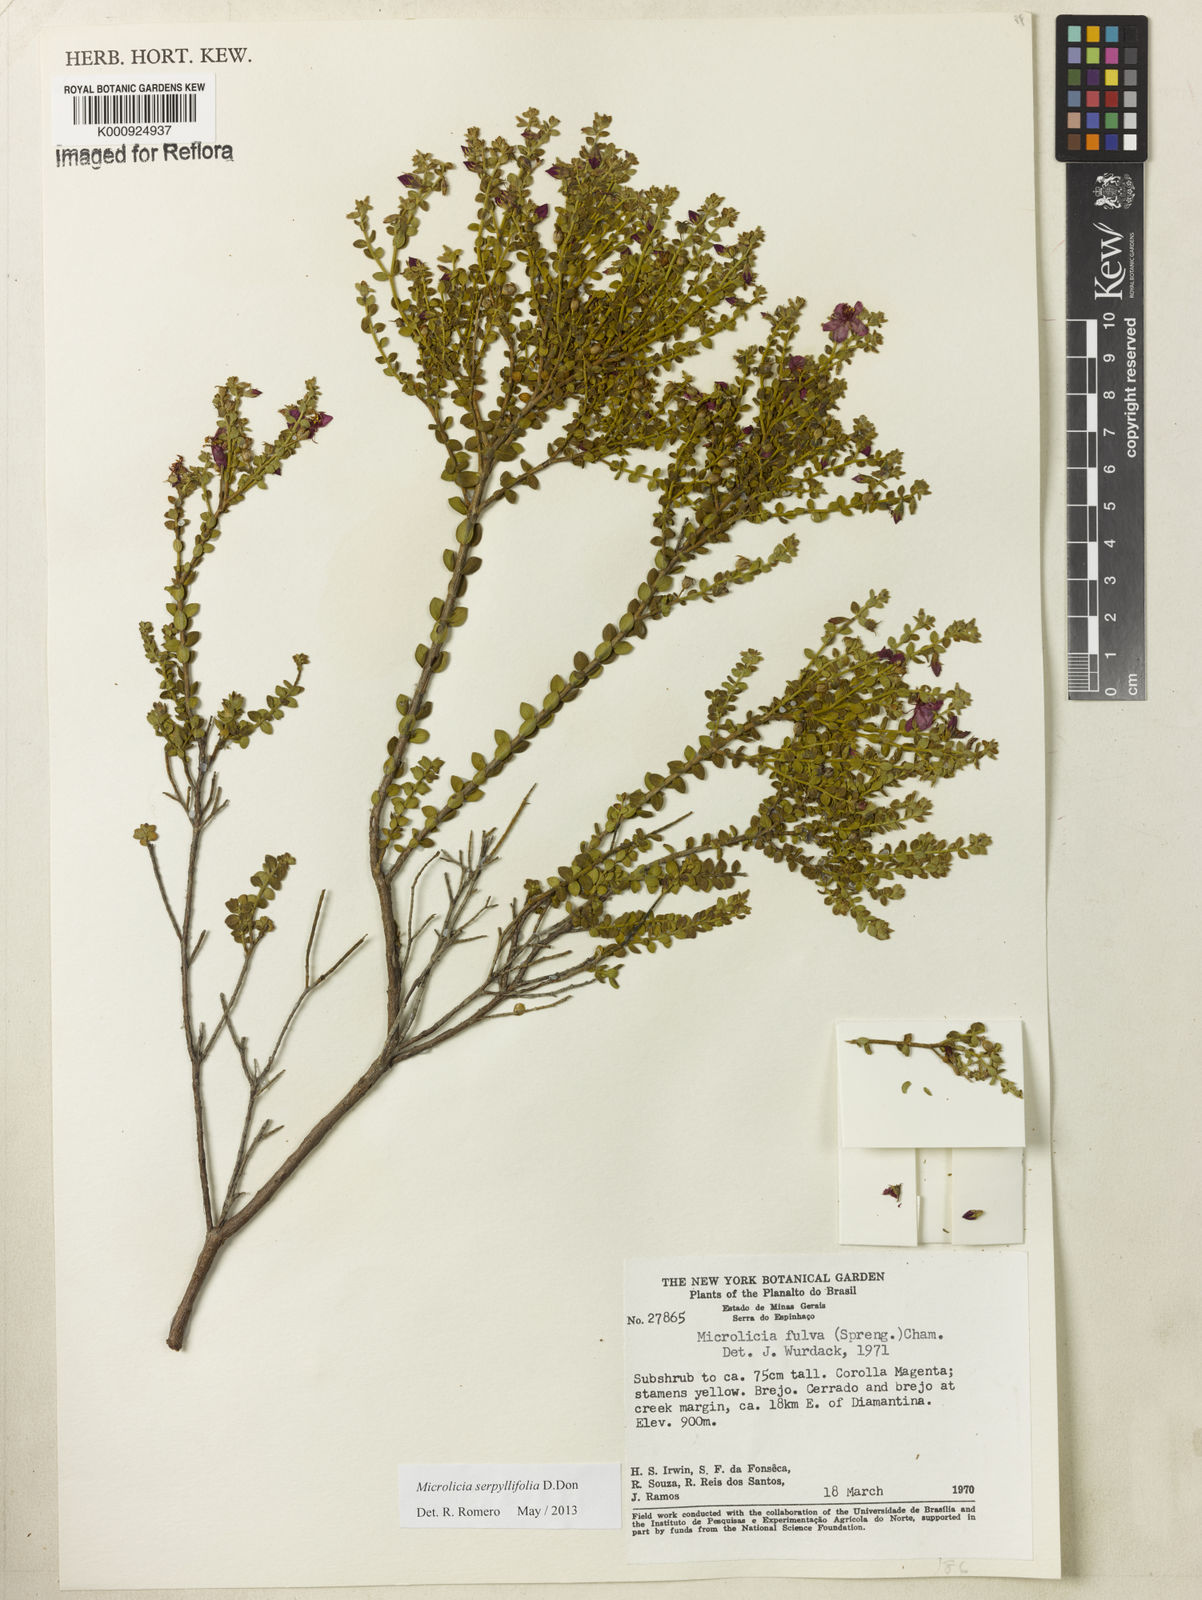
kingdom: Plantae
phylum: Tracheophyta
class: Magnoliopsida
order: Myrtales
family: Melastomataceae
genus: Microlicia
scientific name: Microlicia fulva
